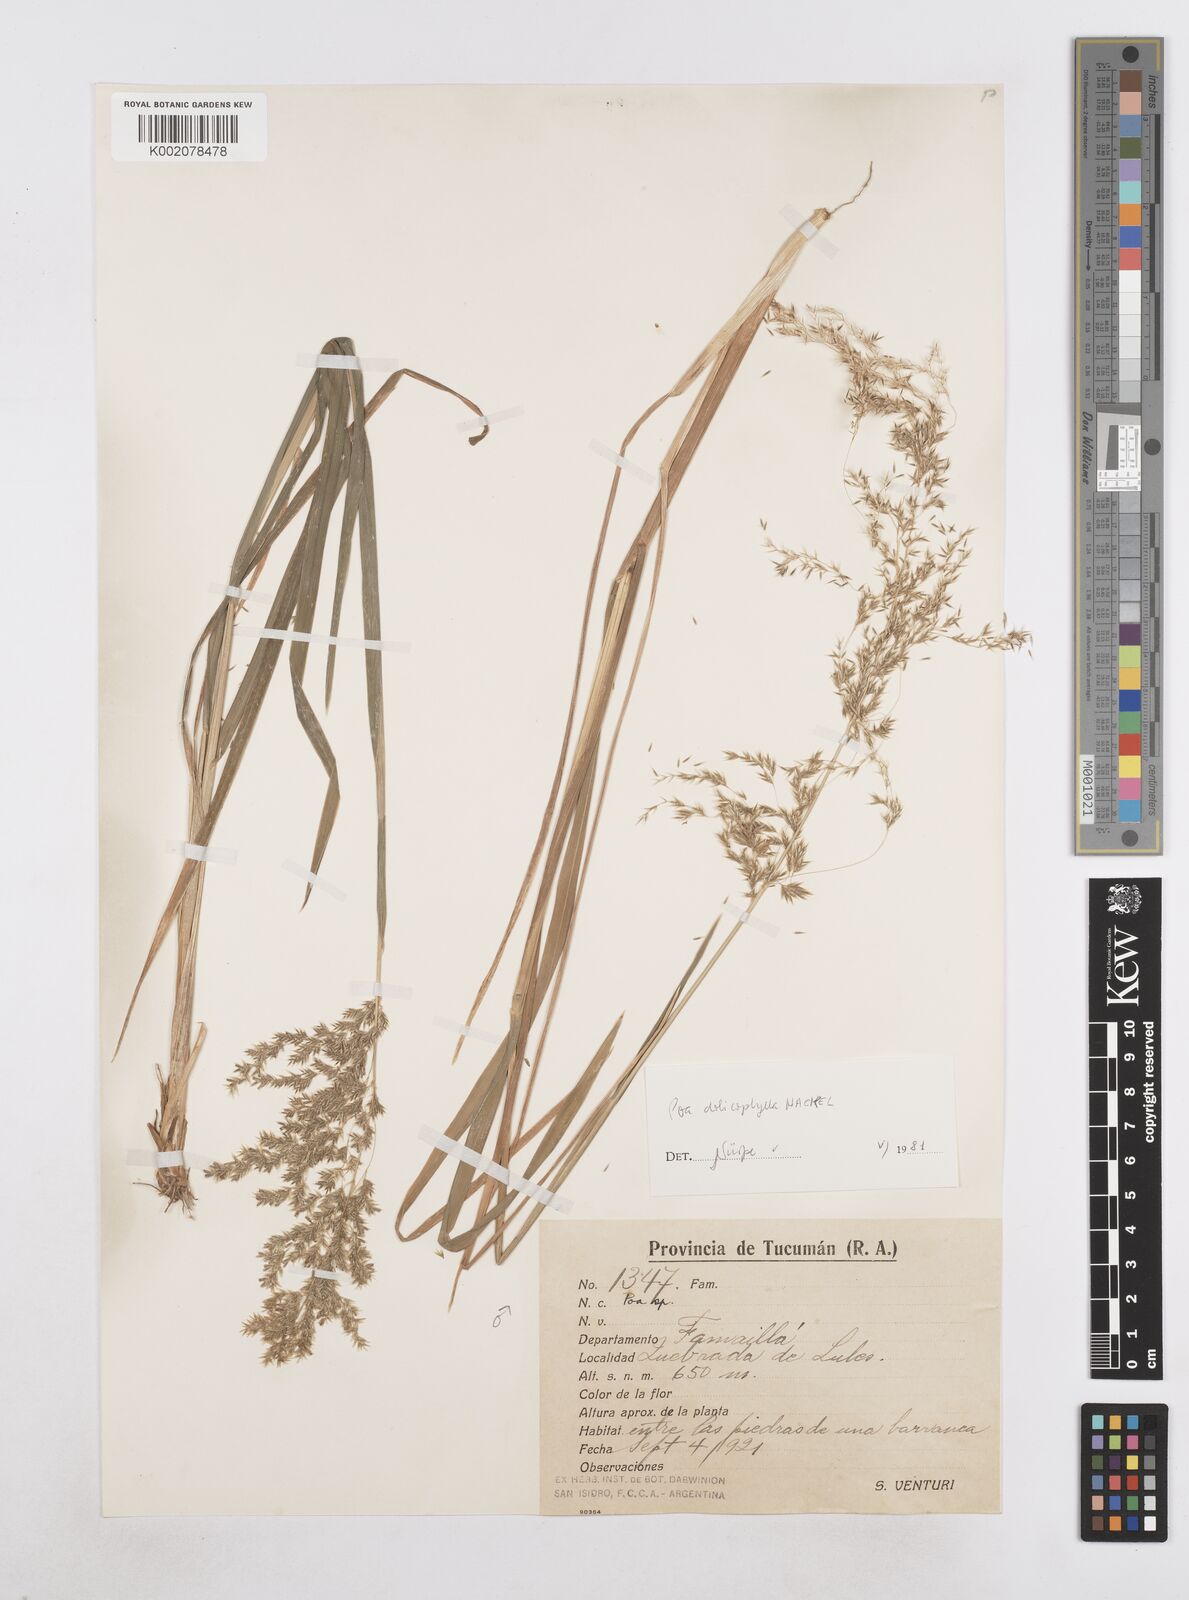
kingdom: Plantae
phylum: Tracheophyta
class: Liliopsida
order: Poales
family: Poaceae
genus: Poa
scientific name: Poa dolichophylla
